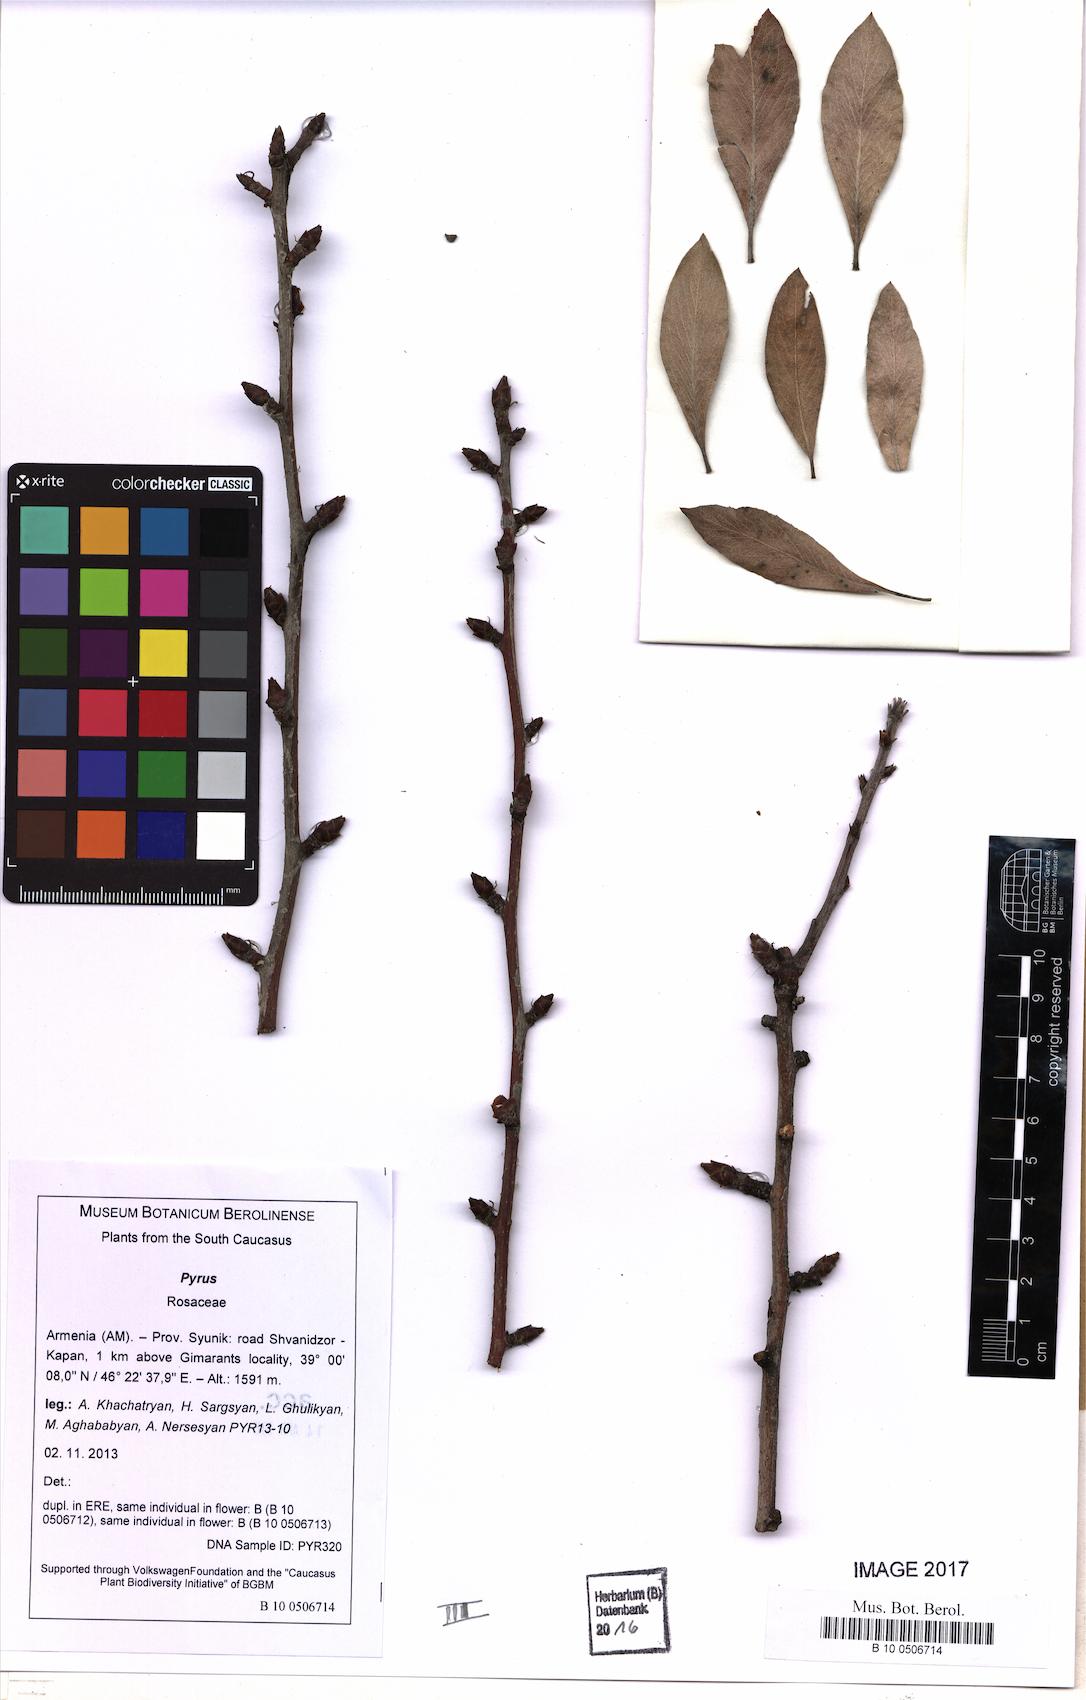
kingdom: Plantae
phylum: Tracheophyta
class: Magnoliopsida
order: Rosales
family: Rosaceae
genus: Pyrus
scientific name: Pyrus
